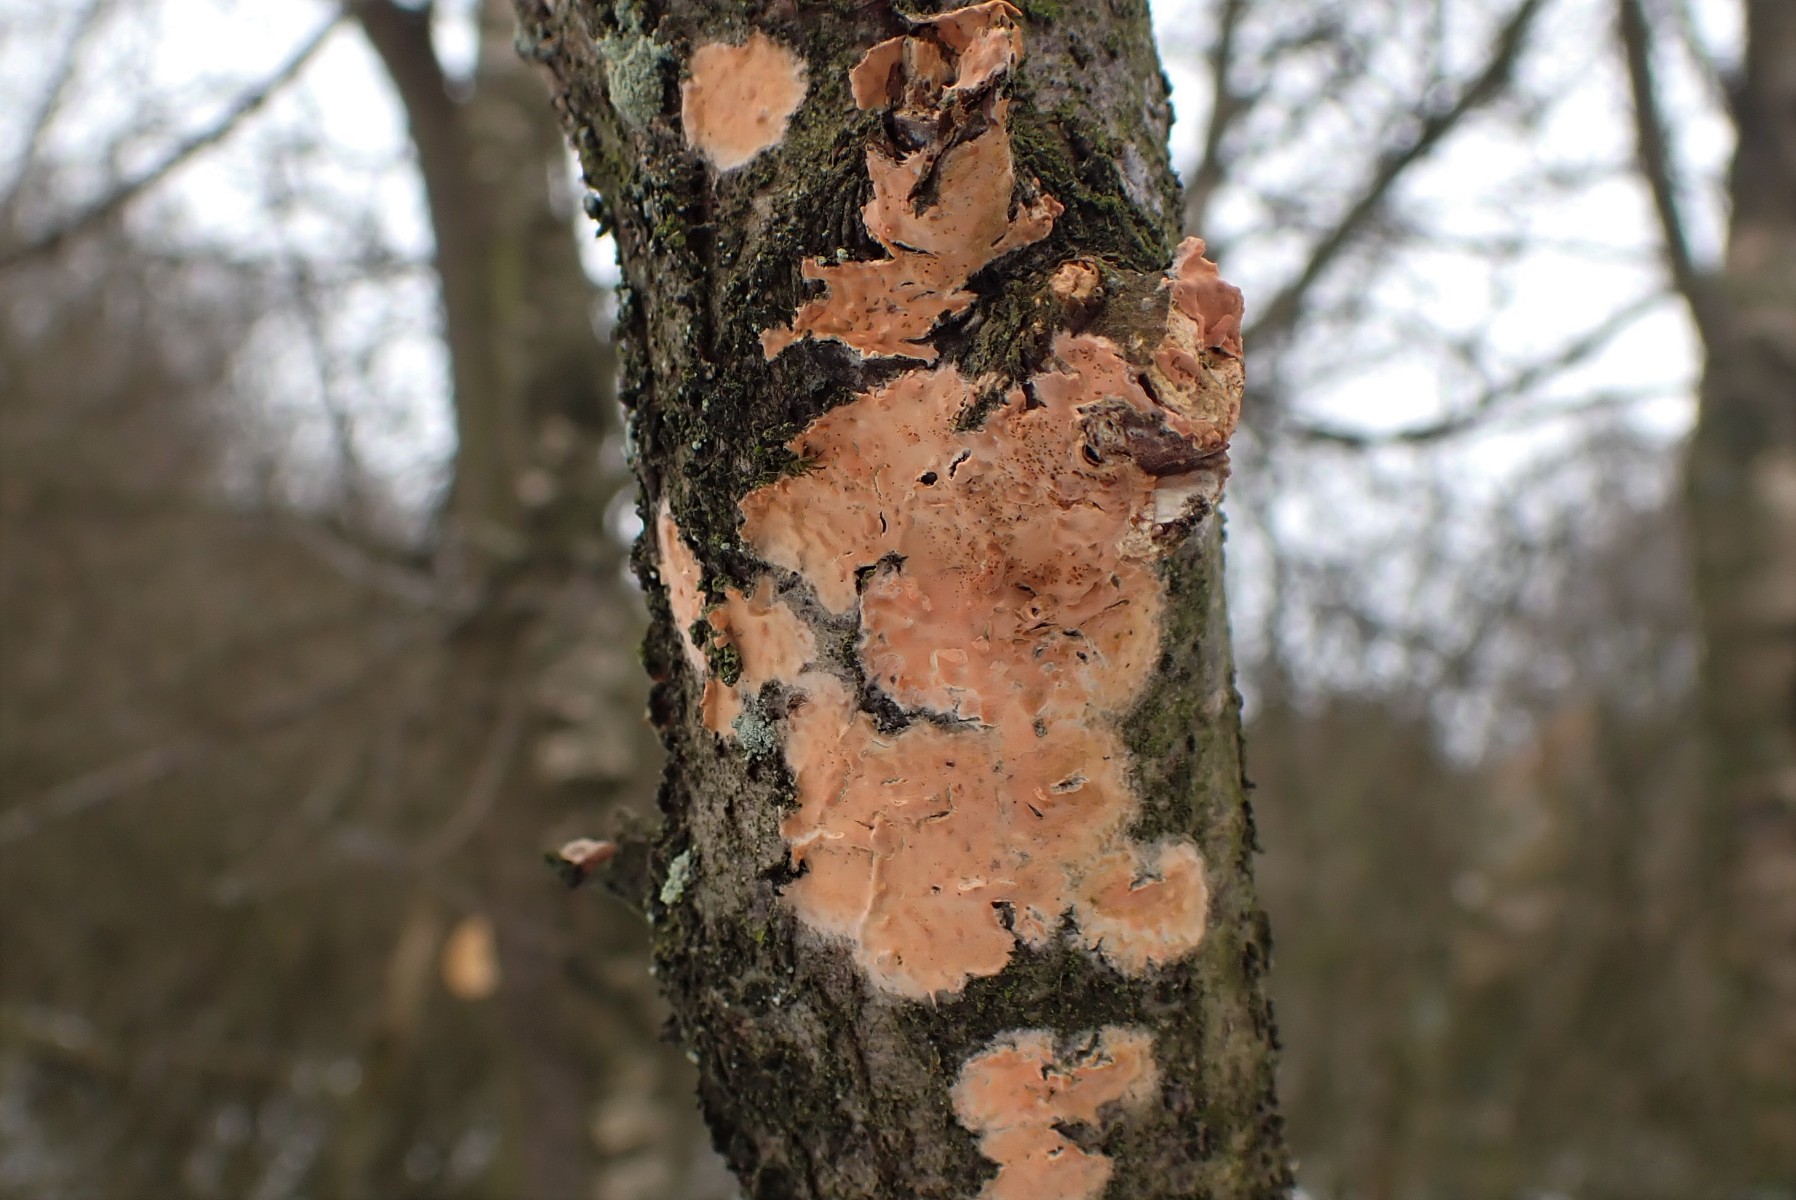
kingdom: Fungi
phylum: Basidiomycota
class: Agaricomycetes
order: Russulales
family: Peniophoraceae
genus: Peniophora
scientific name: Peniophora incarnata
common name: laksefarvet voksskind
